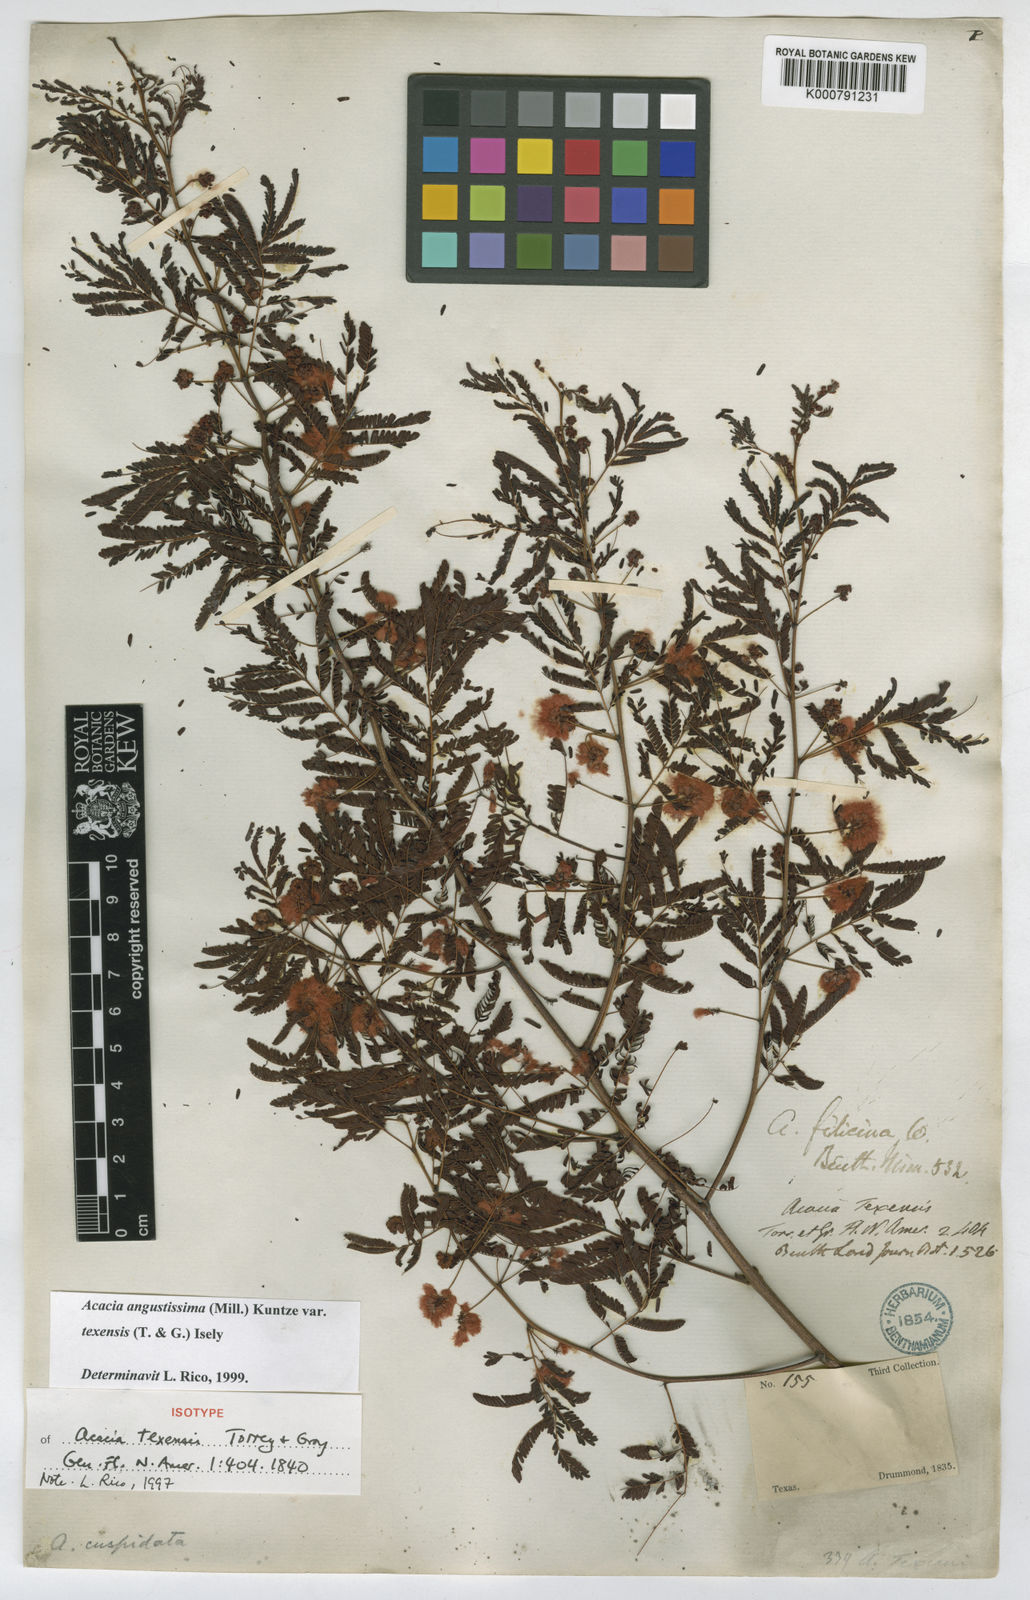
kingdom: Plantae
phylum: Tracheophyta
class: Magnoliopsida
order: Fabales
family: Fabaceae
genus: Acaciella
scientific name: Acaciella
